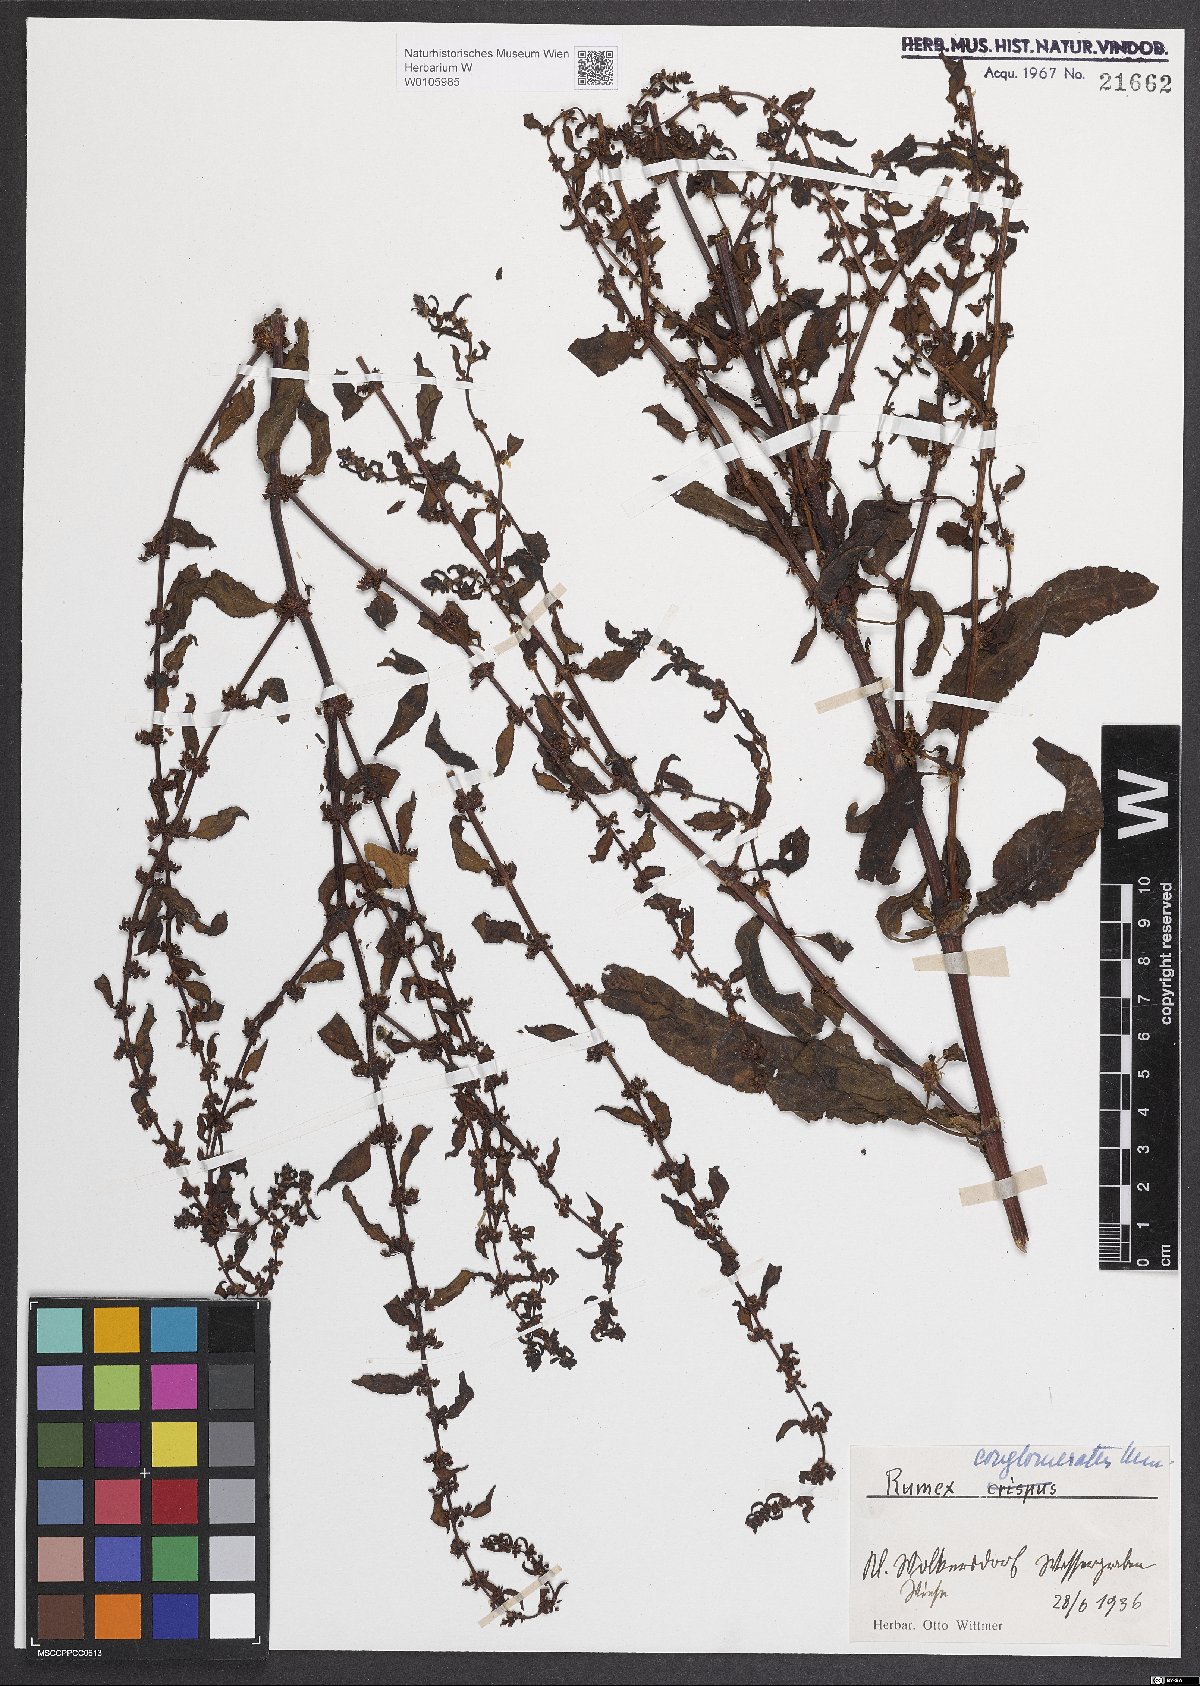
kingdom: Plantae
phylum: Tracheophyta
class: Magnoliopsida
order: Caryophyllales
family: Polygonaceae
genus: Rumex
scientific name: Rumex conglomeratus
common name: Clustered dock
